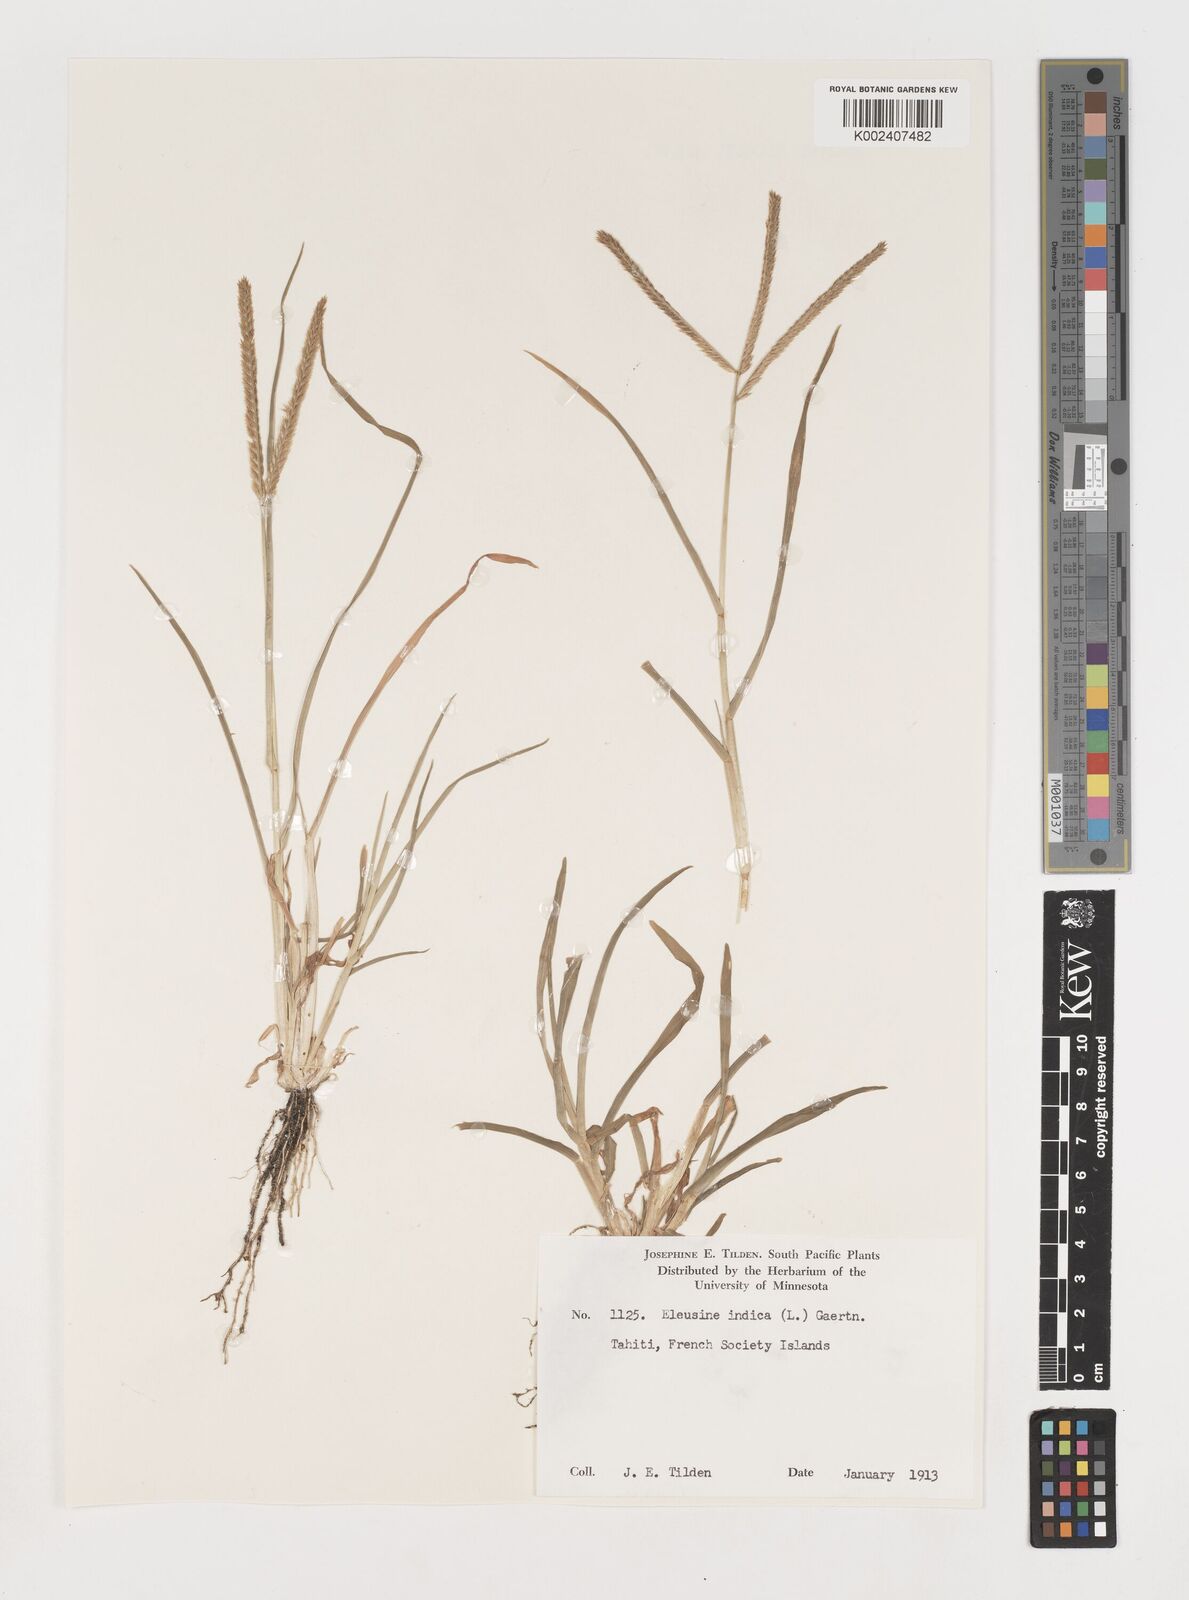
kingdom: Plantae
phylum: Tracheophyta
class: Liliopsida
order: Poales
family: Poaceae
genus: Eleusine
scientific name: Eleusine indica
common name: Yard-grass
